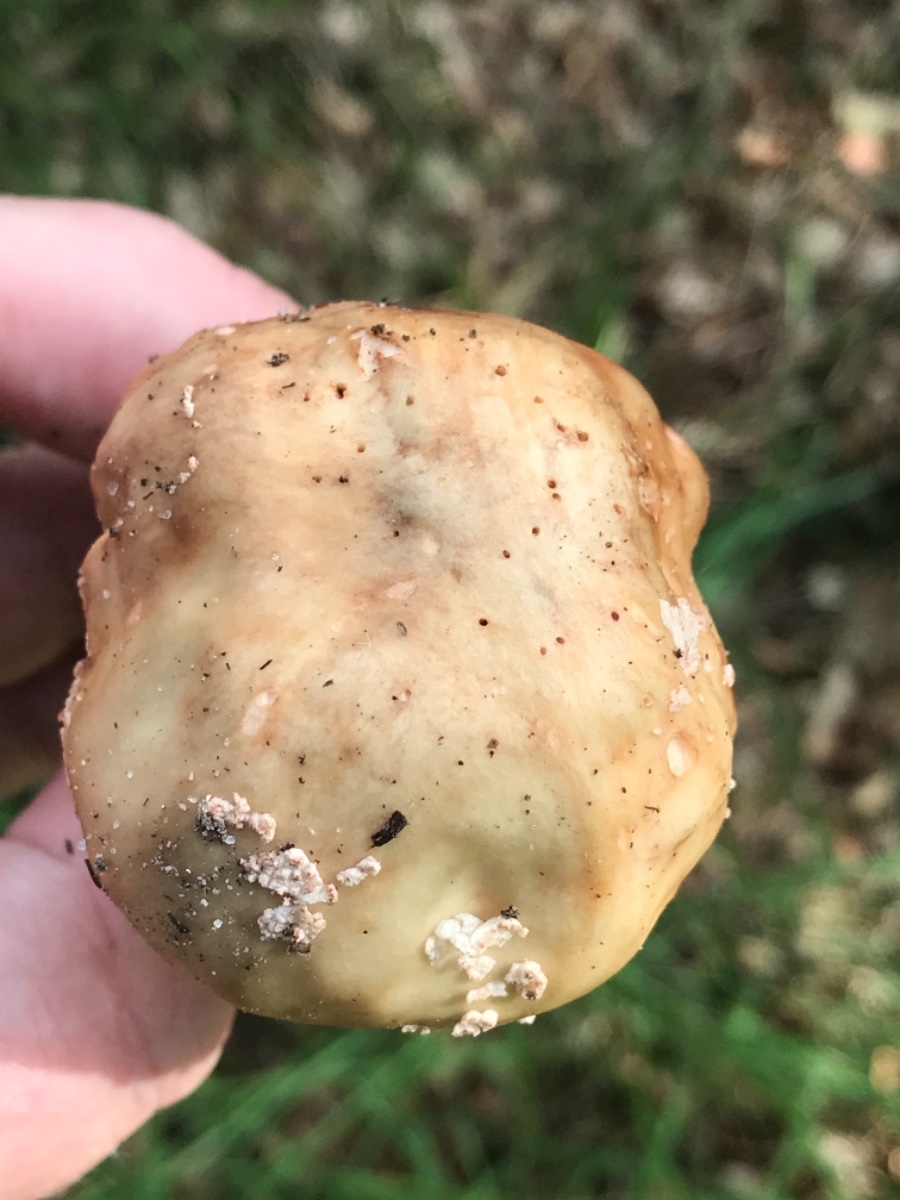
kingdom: Fungi
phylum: Basidiomycota
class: Agaricomycetes
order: Agaricales
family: Amanitaceae
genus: Amanita
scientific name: Amanita rubescens
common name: rødmende fluesvamp
